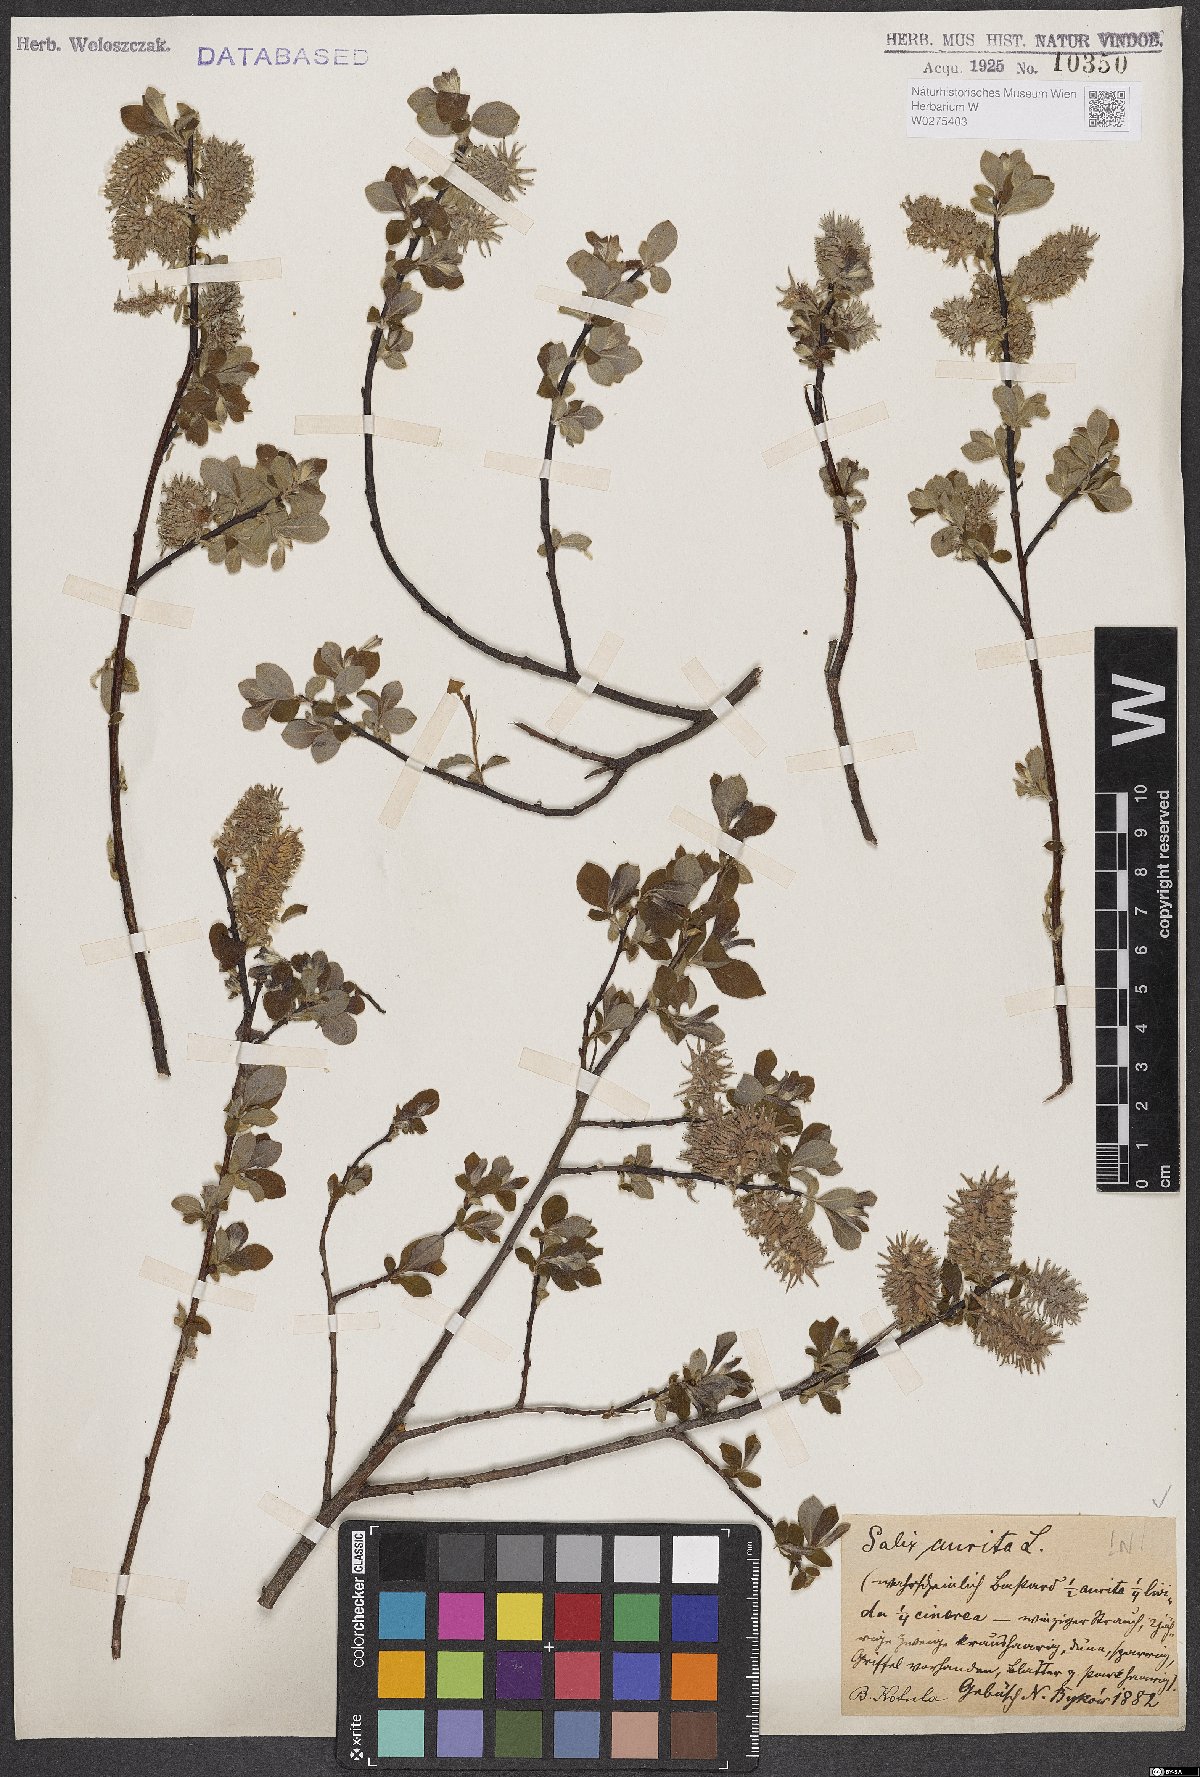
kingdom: Plantae
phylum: Tracheophyta
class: Magnoliopsida
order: Malpighiales
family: Salicaceae
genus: Salix
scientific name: Salix aurita
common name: Eared willow
